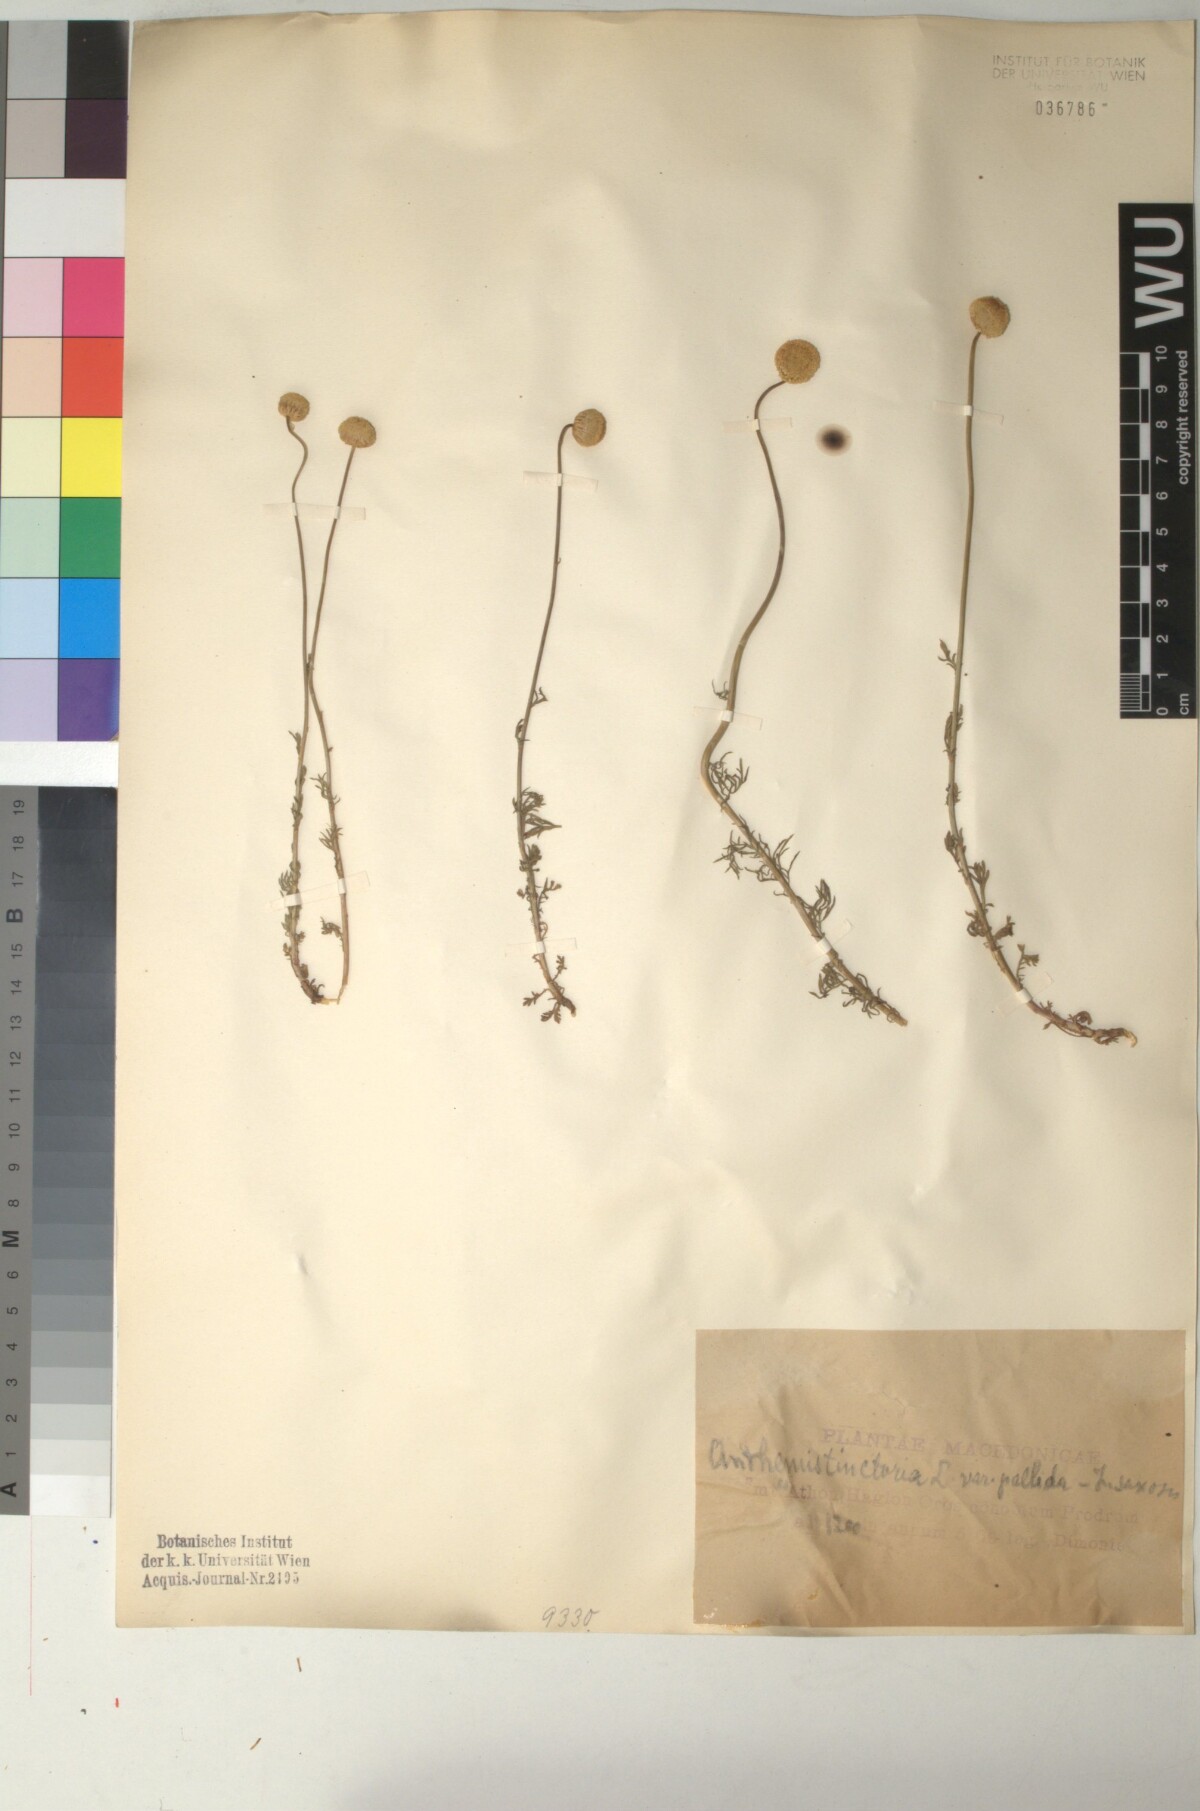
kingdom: Plantae
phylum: Tracheophyta
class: Magnoliopsida
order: Asterales
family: Asteraceae
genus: Cota
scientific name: Cota tinctoria
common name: Golden chamomile
